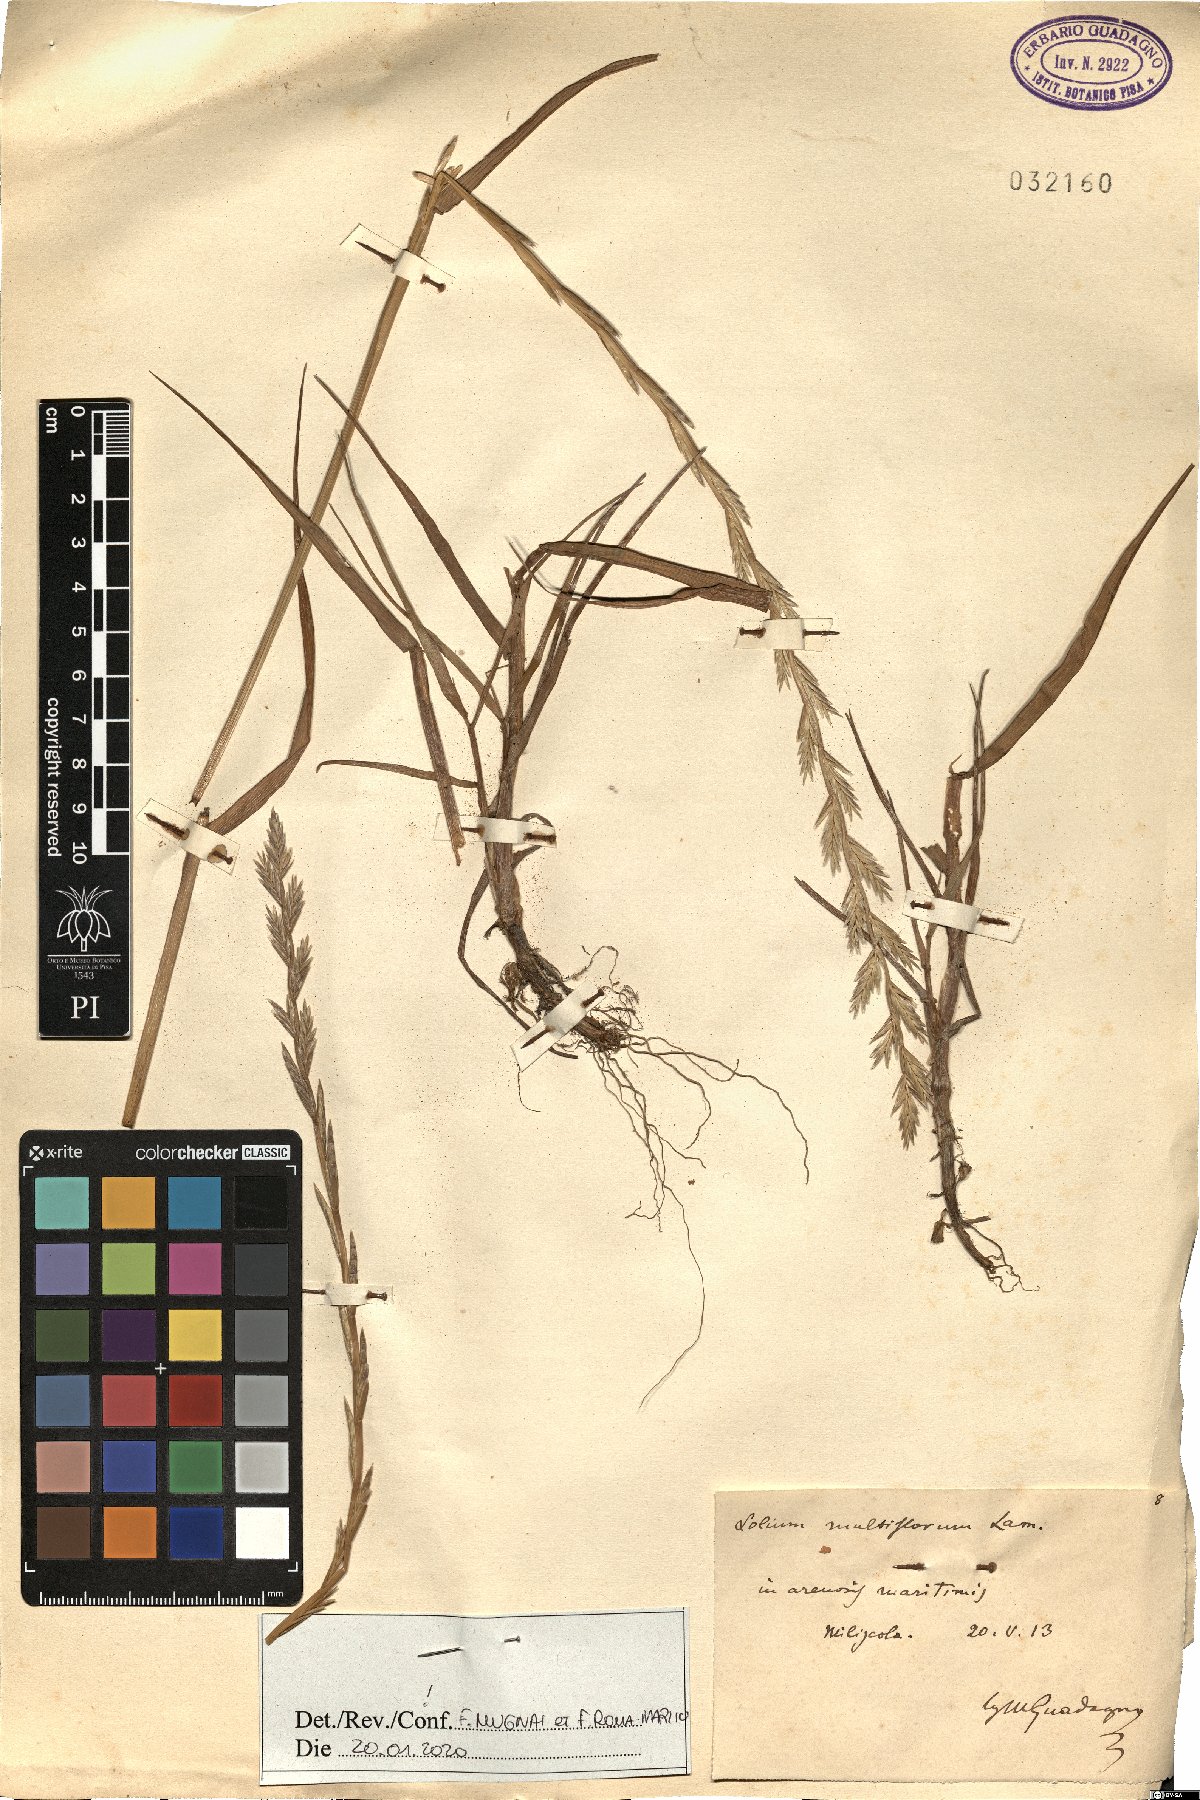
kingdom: Plantae
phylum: Tracheophyta
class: Liliopsida
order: Poales
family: Poaceae
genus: Lolium
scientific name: Lolium multiflorum
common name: Annual ryegrass
